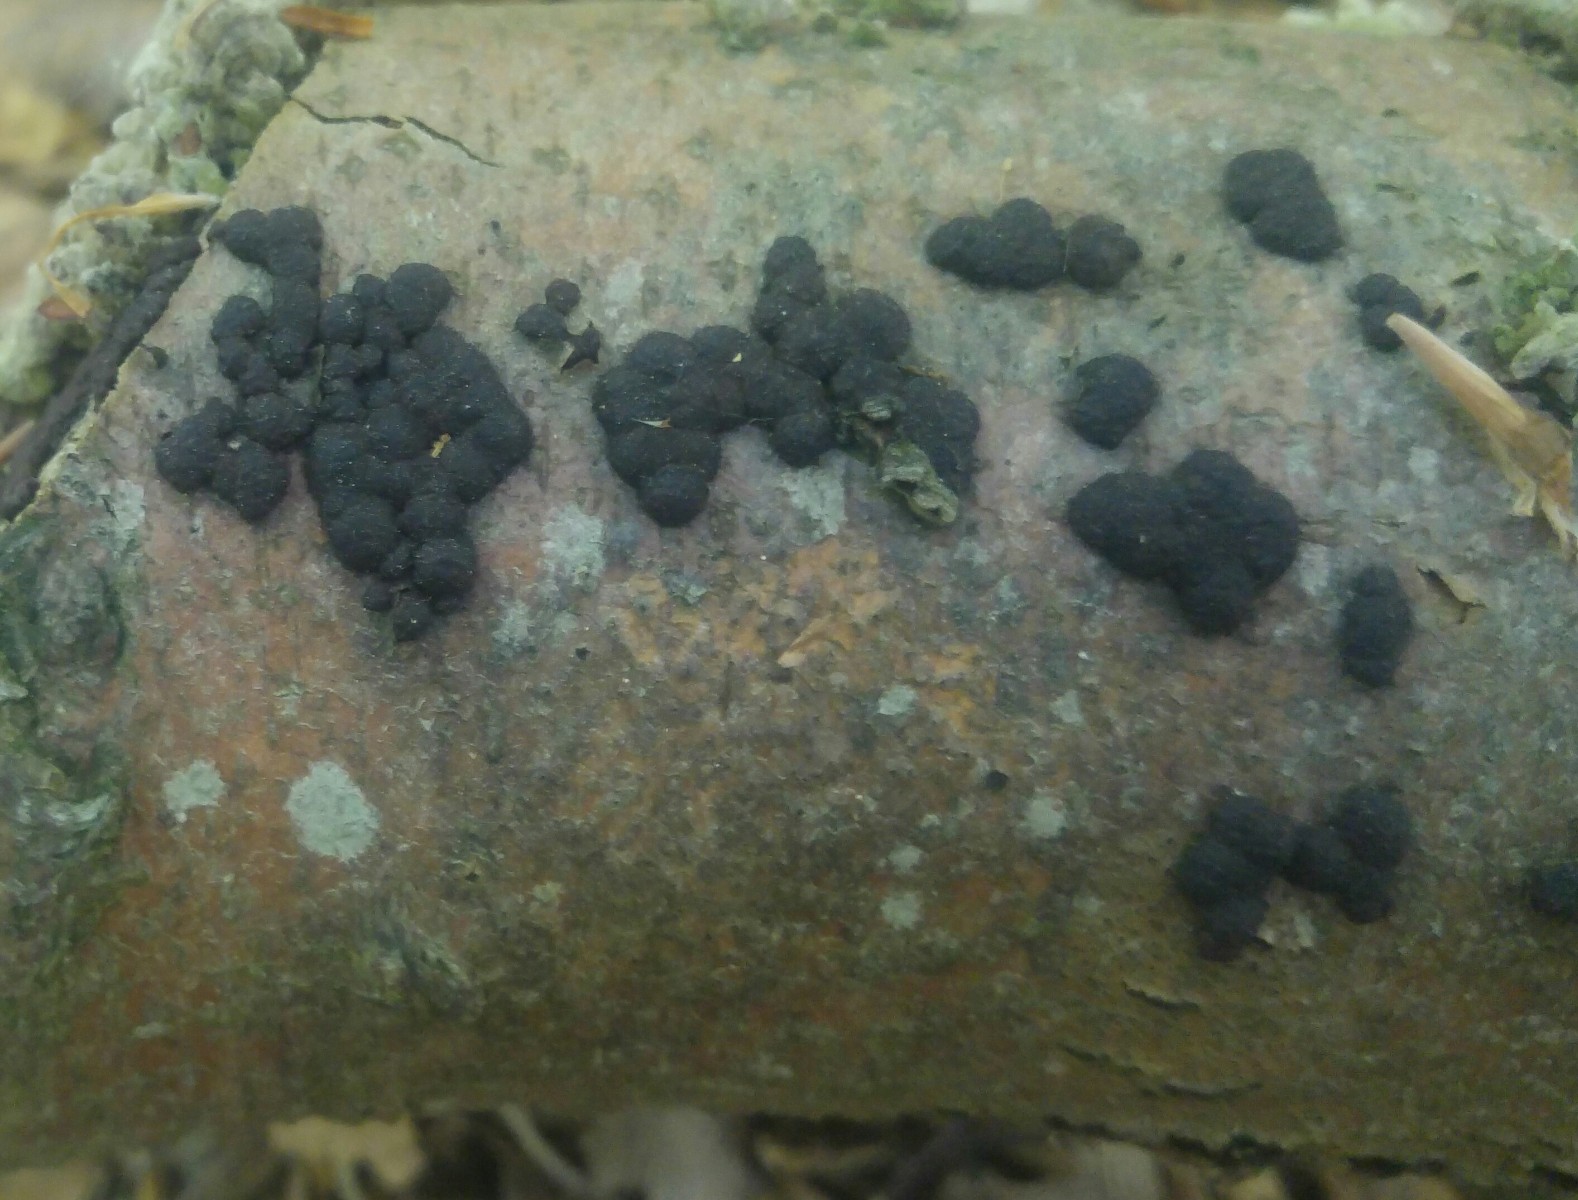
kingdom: Fungi
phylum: Ascomycota
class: Sordariomycetes
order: Xylariales
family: Hypoxylaceae
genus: Jackrogersella
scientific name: Jackrogersella cohaerens
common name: sammenflydende kulbær
